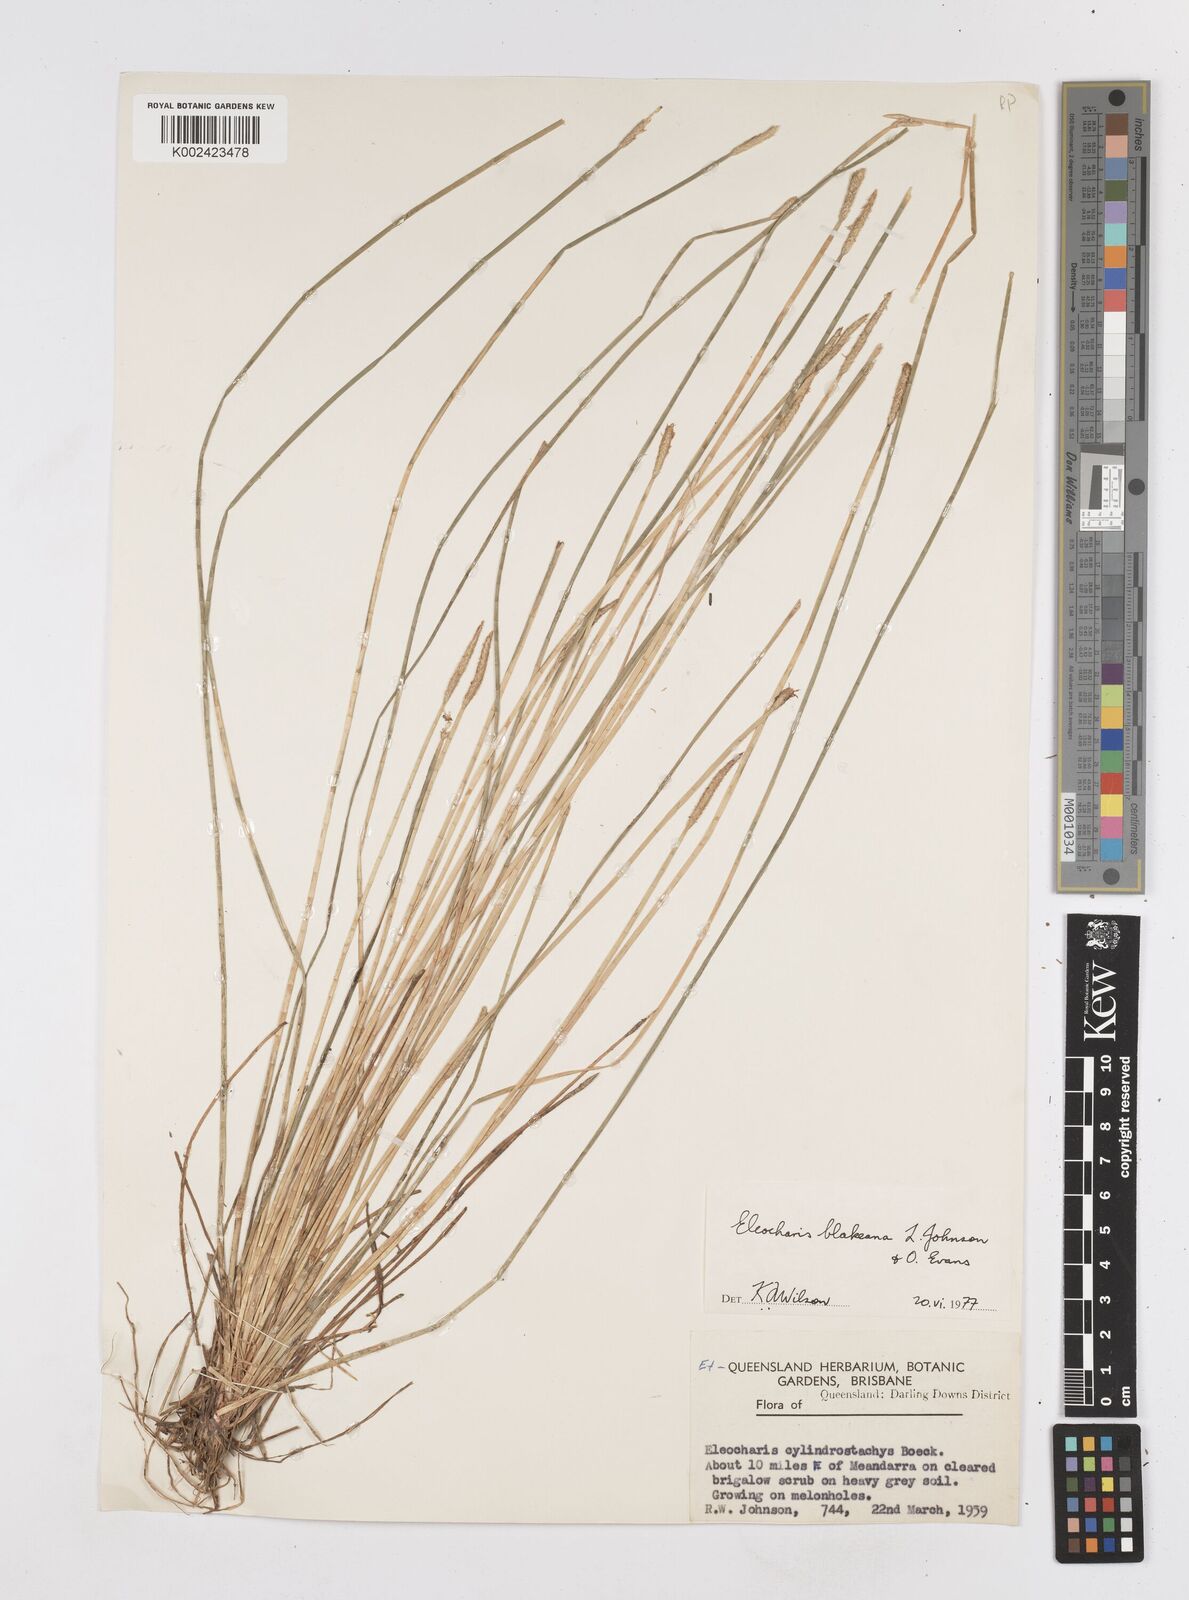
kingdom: Plantae
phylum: Tracheophyta
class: Liliopsida
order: Poales
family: Cyperaceae
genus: Eleocharis
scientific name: Eleocharis blakeana
